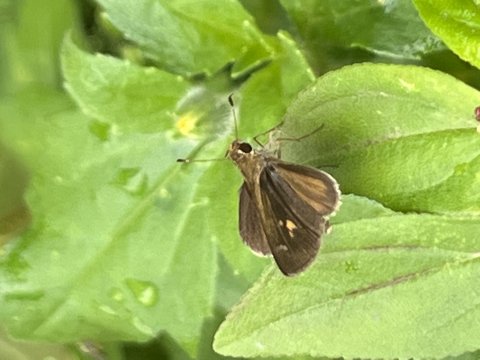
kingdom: Animalia
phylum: Arthropoda
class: Insecta
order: Lepidoptera
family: Hesperiidae
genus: Callimormus
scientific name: Callimormus
